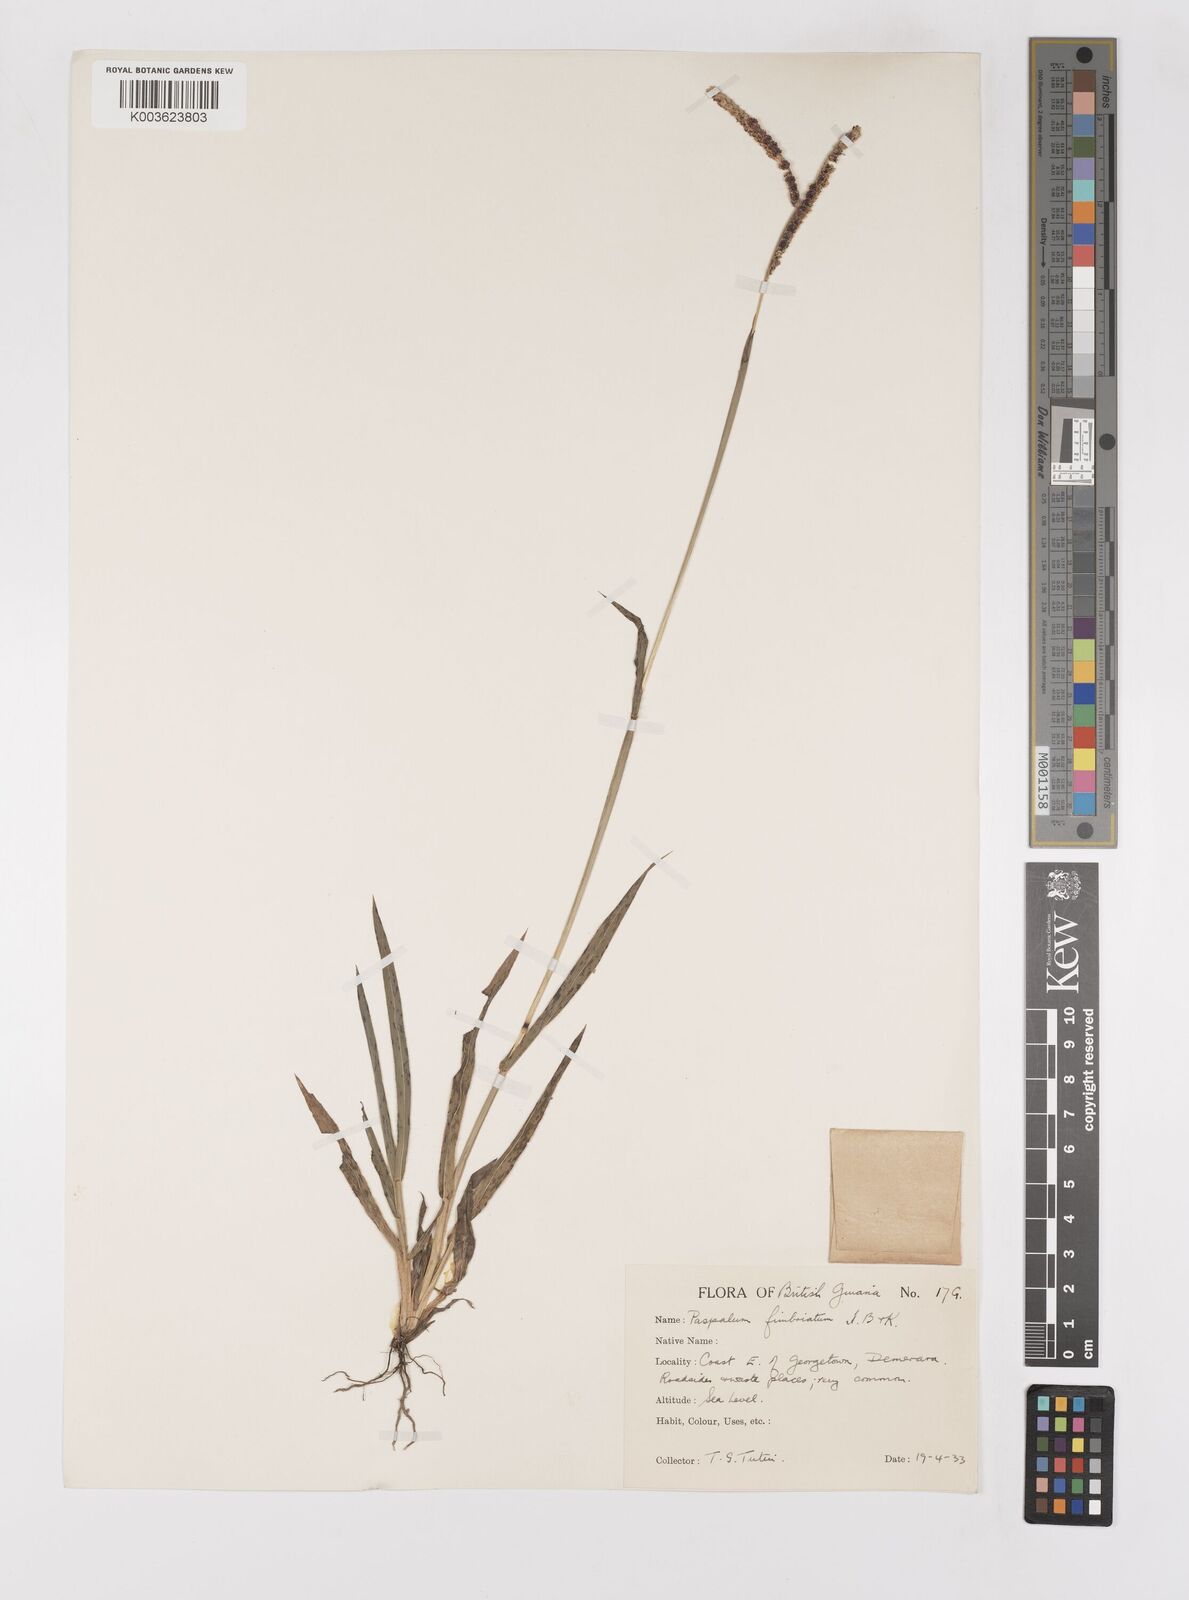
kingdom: Plantae
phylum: Tracheophyta
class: Liliopsida
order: Poales
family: Poaceae
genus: Paspalum
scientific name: Paspalum fimbriatum
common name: Panama crowngrass
